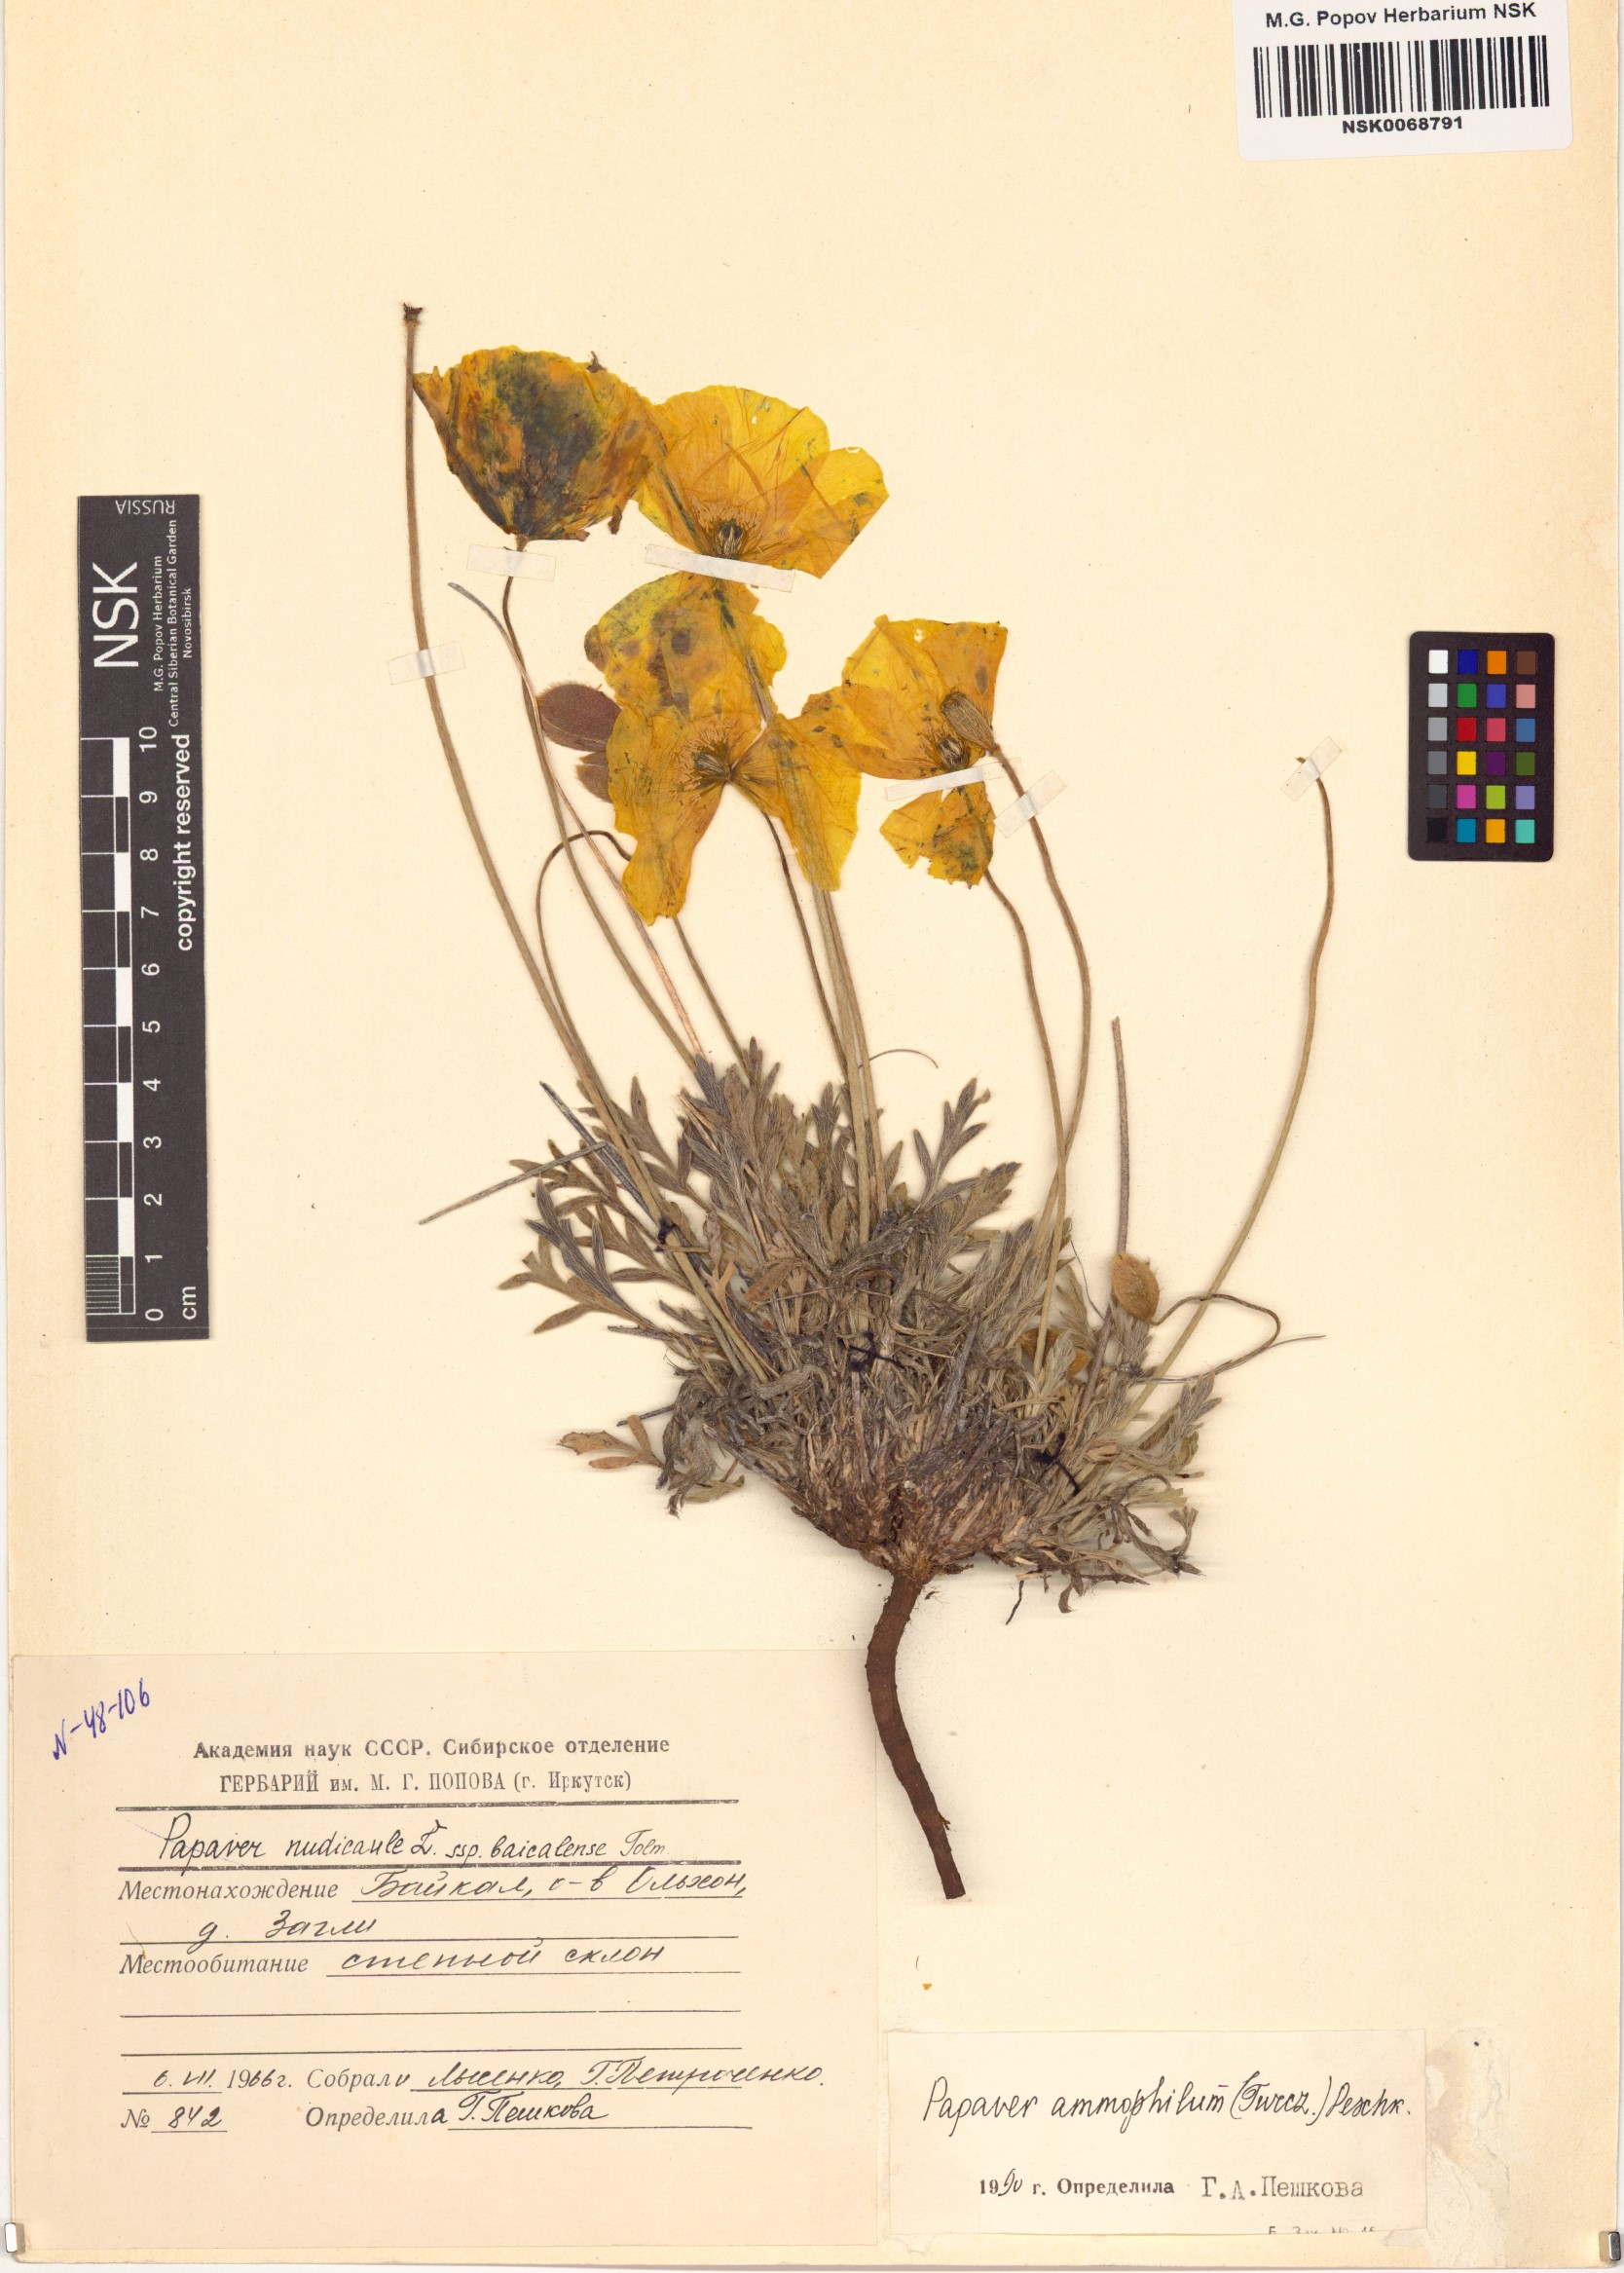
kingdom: Plantae
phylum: Tracheophyta
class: Magnoliopsida
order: Ranunculales
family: Papaveraceae
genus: Papaver
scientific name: Papaver nudicaule
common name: Arctic poppy
